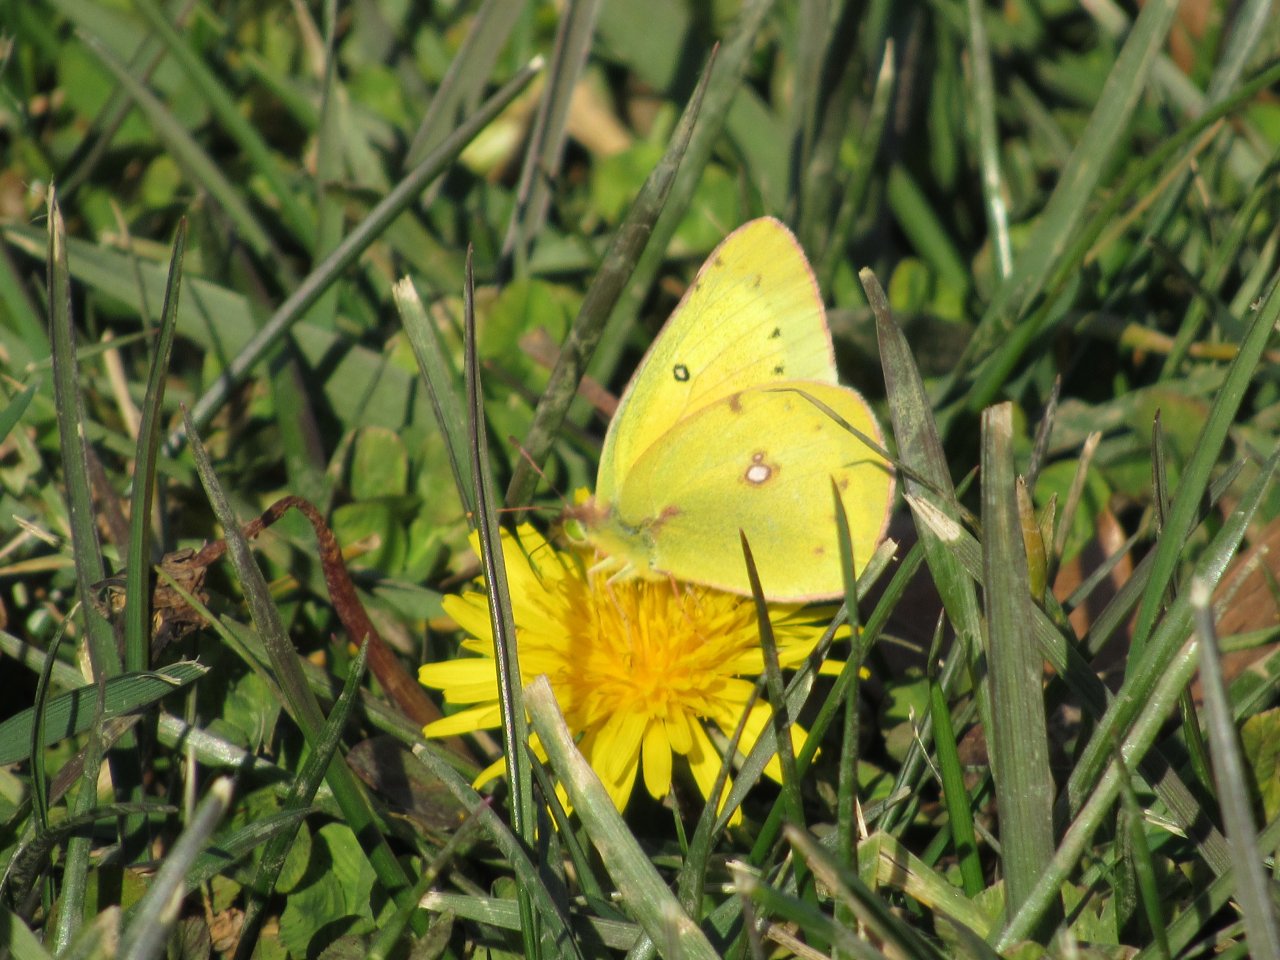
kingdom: Animalia
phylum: Arthropoda
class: Insecta
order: Lepidoptera
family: Pieridae
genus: Colias
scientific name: Colias eurytheme
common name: Orange Sulphur
